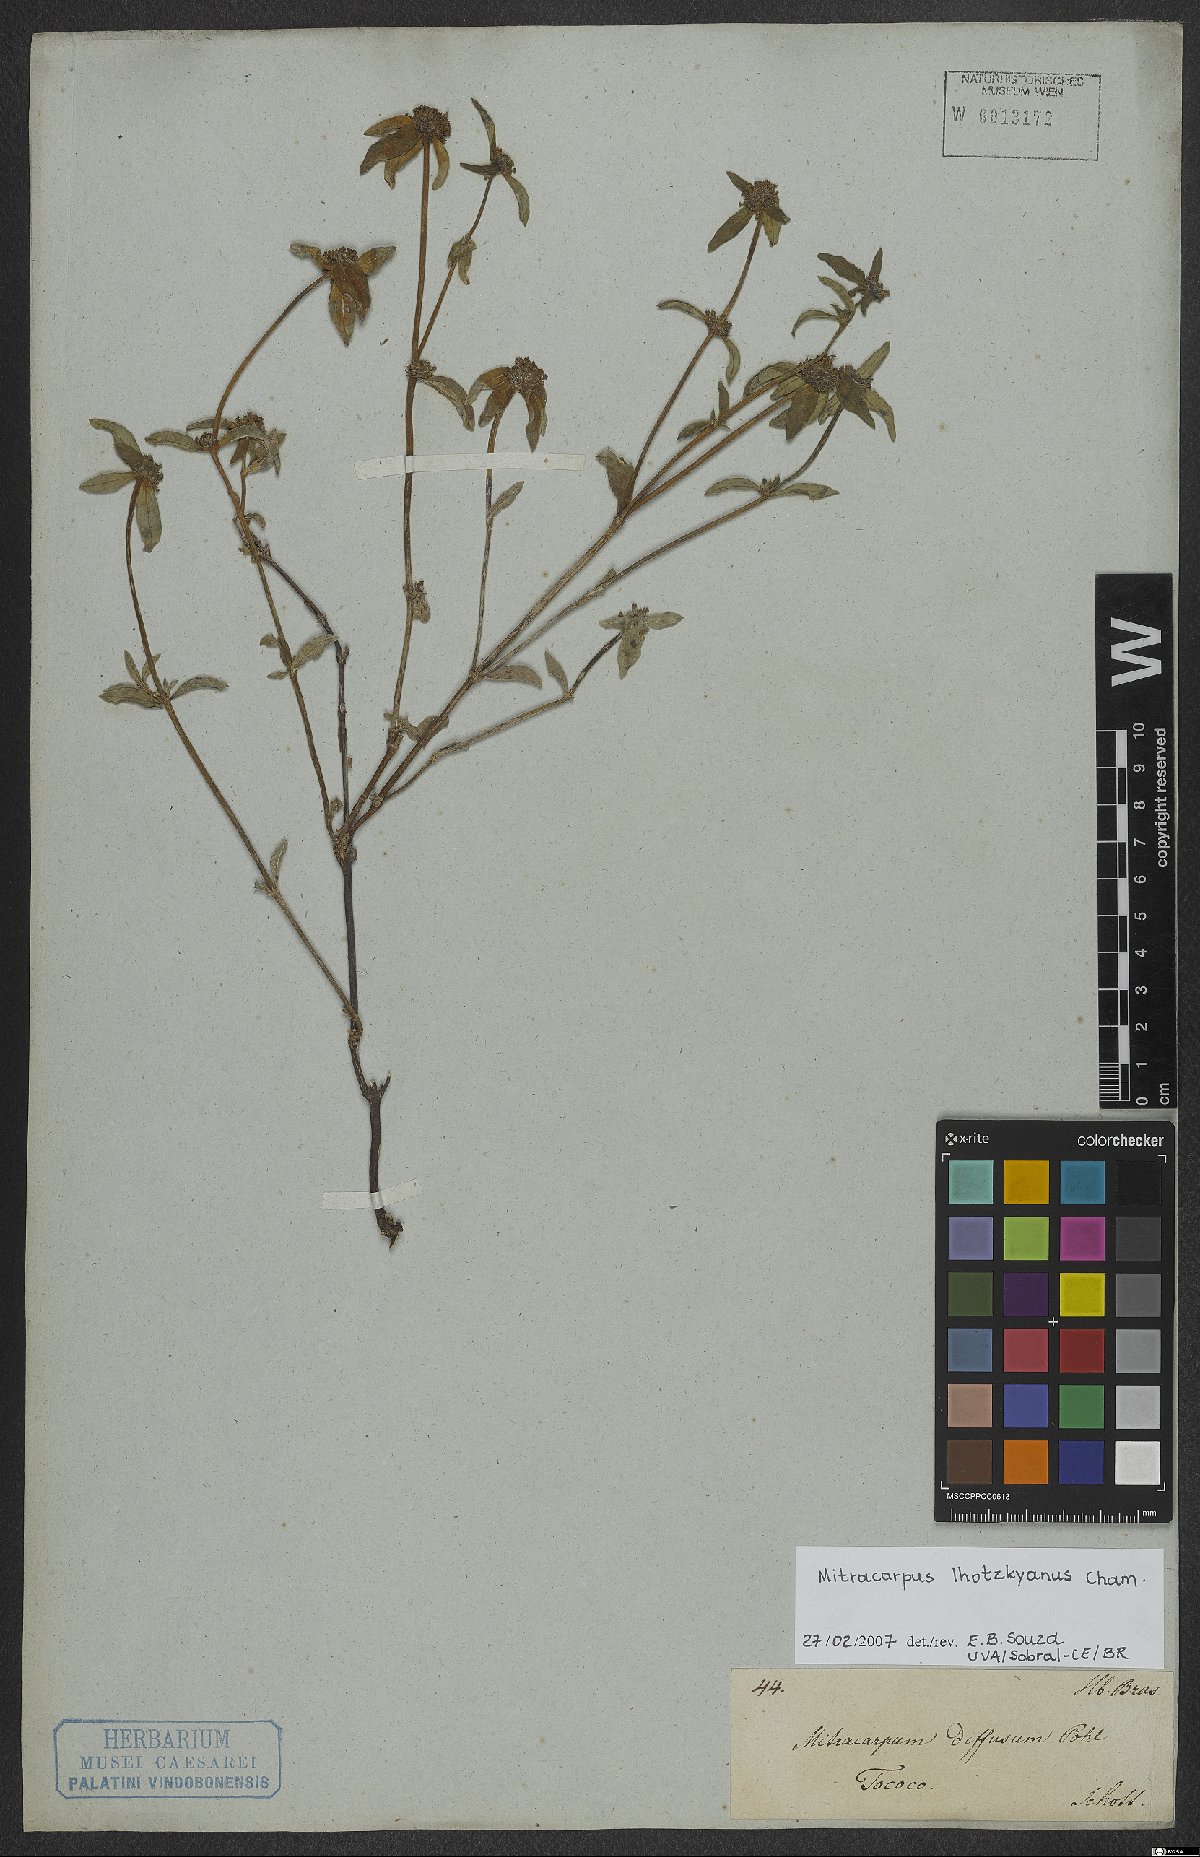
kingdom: Plantae
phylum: Tracheophyta
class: Magnoliopsida
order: Gentianales
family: Rubiaceae
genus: Mitracarpus
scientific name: Mitracarpus lhotzkyanus
